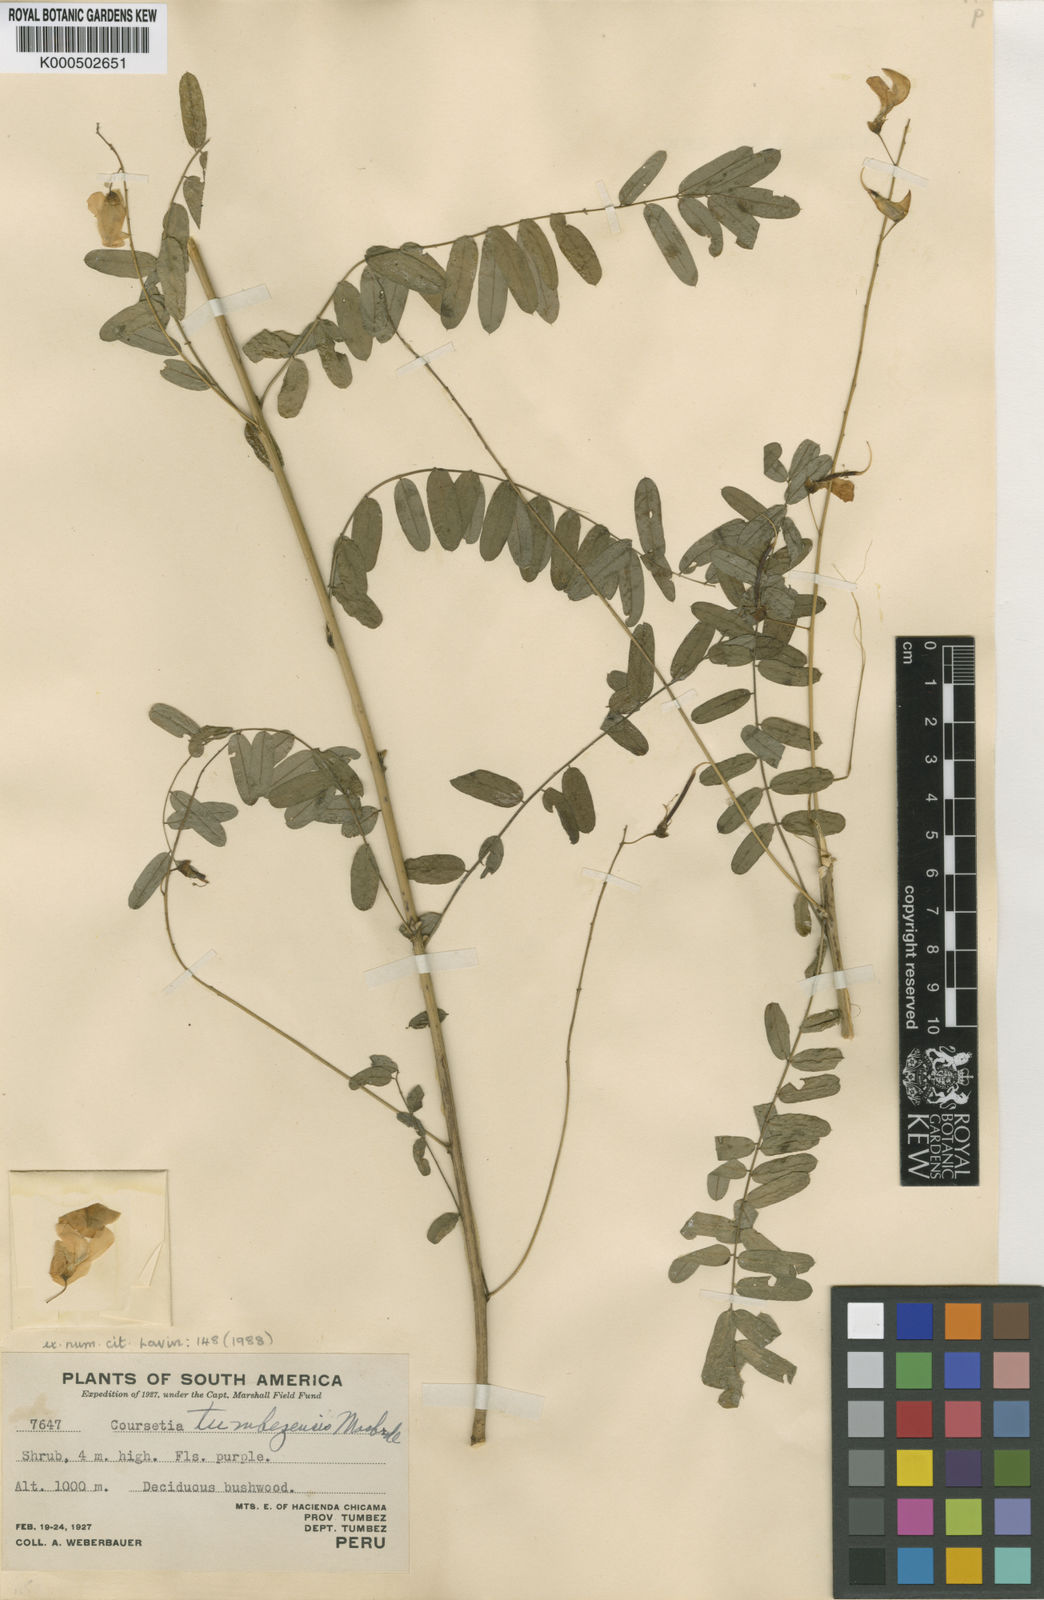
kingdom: Plantae
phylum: Tracheophyta
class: Magnoliopsida
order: Fabales
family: Fabaceae
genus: Coursetia
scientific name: Coursetia tumbezensis
